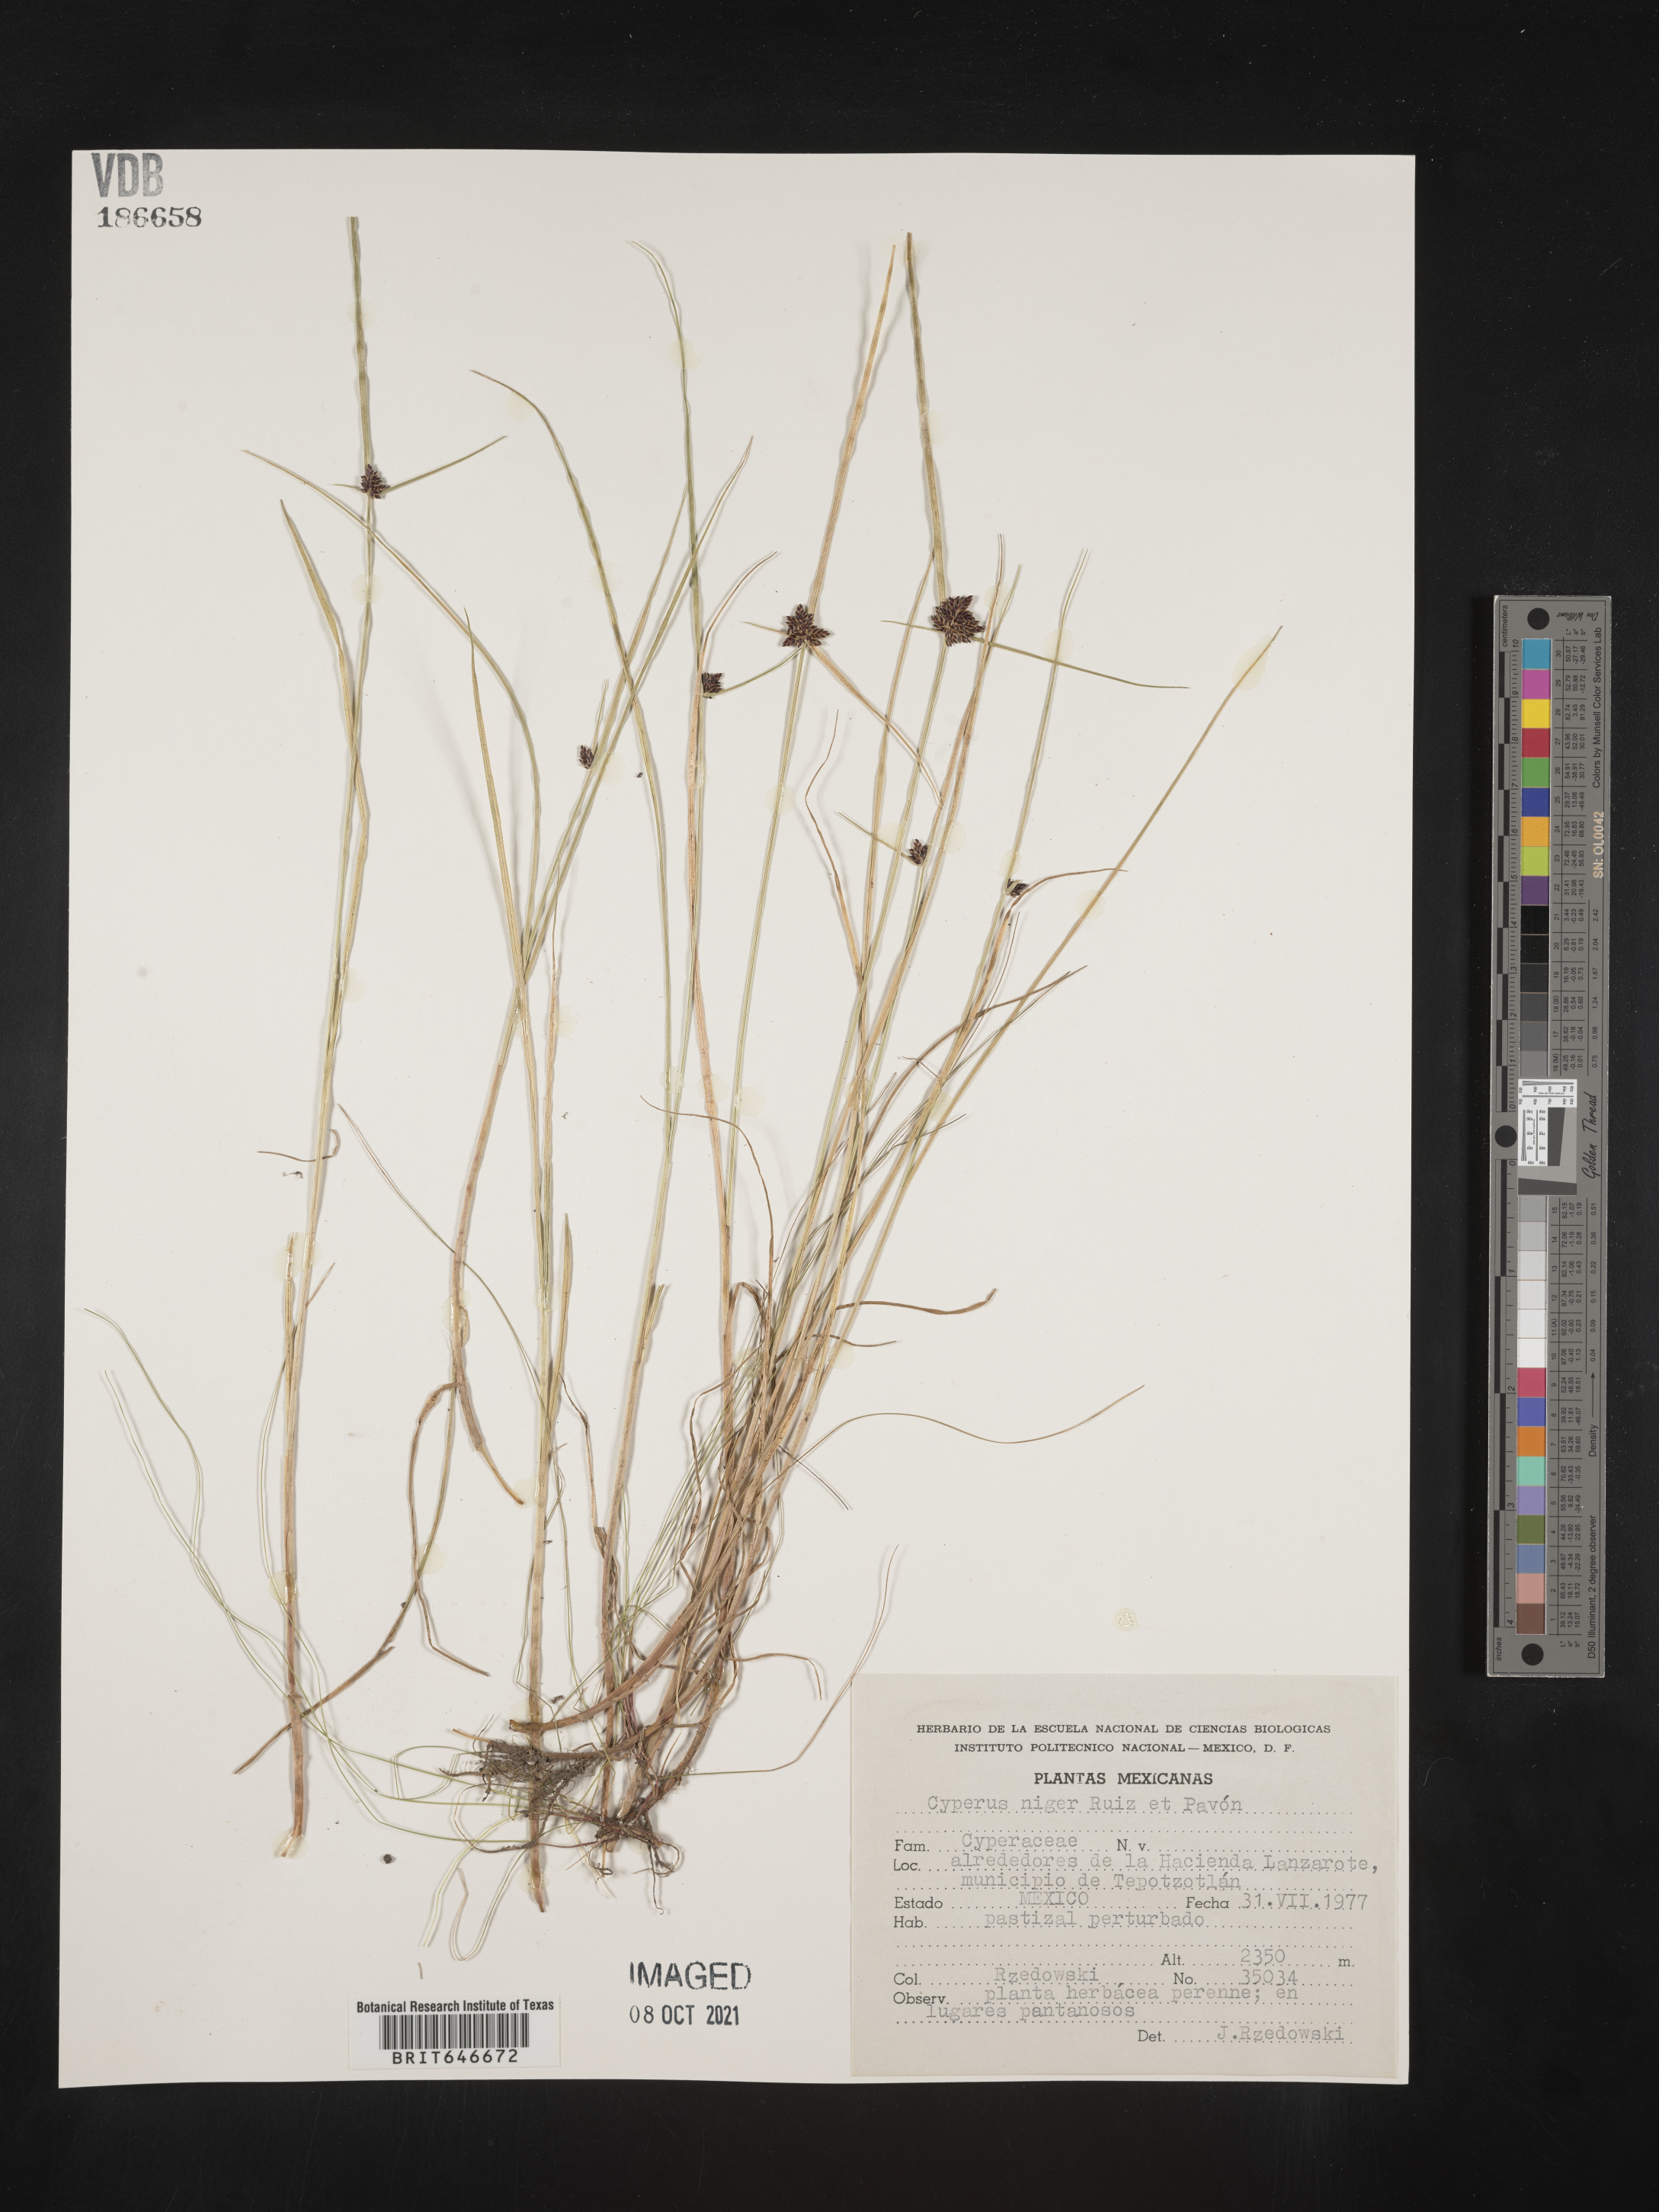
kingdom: Plantae
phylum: Tracheophyta
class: Liliopsida
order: Poales
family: Cyperaceae
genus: Cyperus
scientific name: Cyperus
